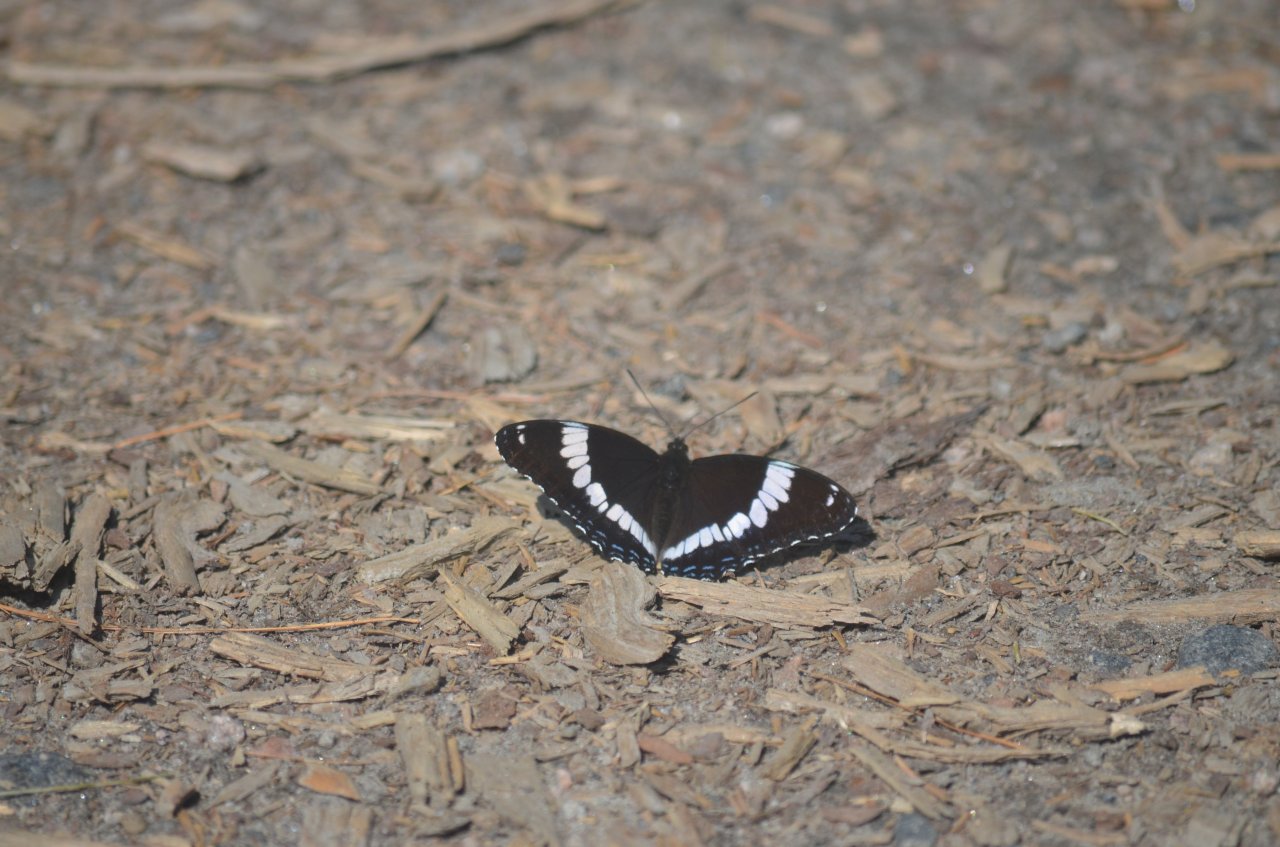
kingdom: Animalia
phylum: Arthropoda
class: Insecta
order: Lepidoptera
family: Nymphalidae
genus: Limenitis
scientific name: Limenitis arthemis
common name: Red-spotted Admiral
